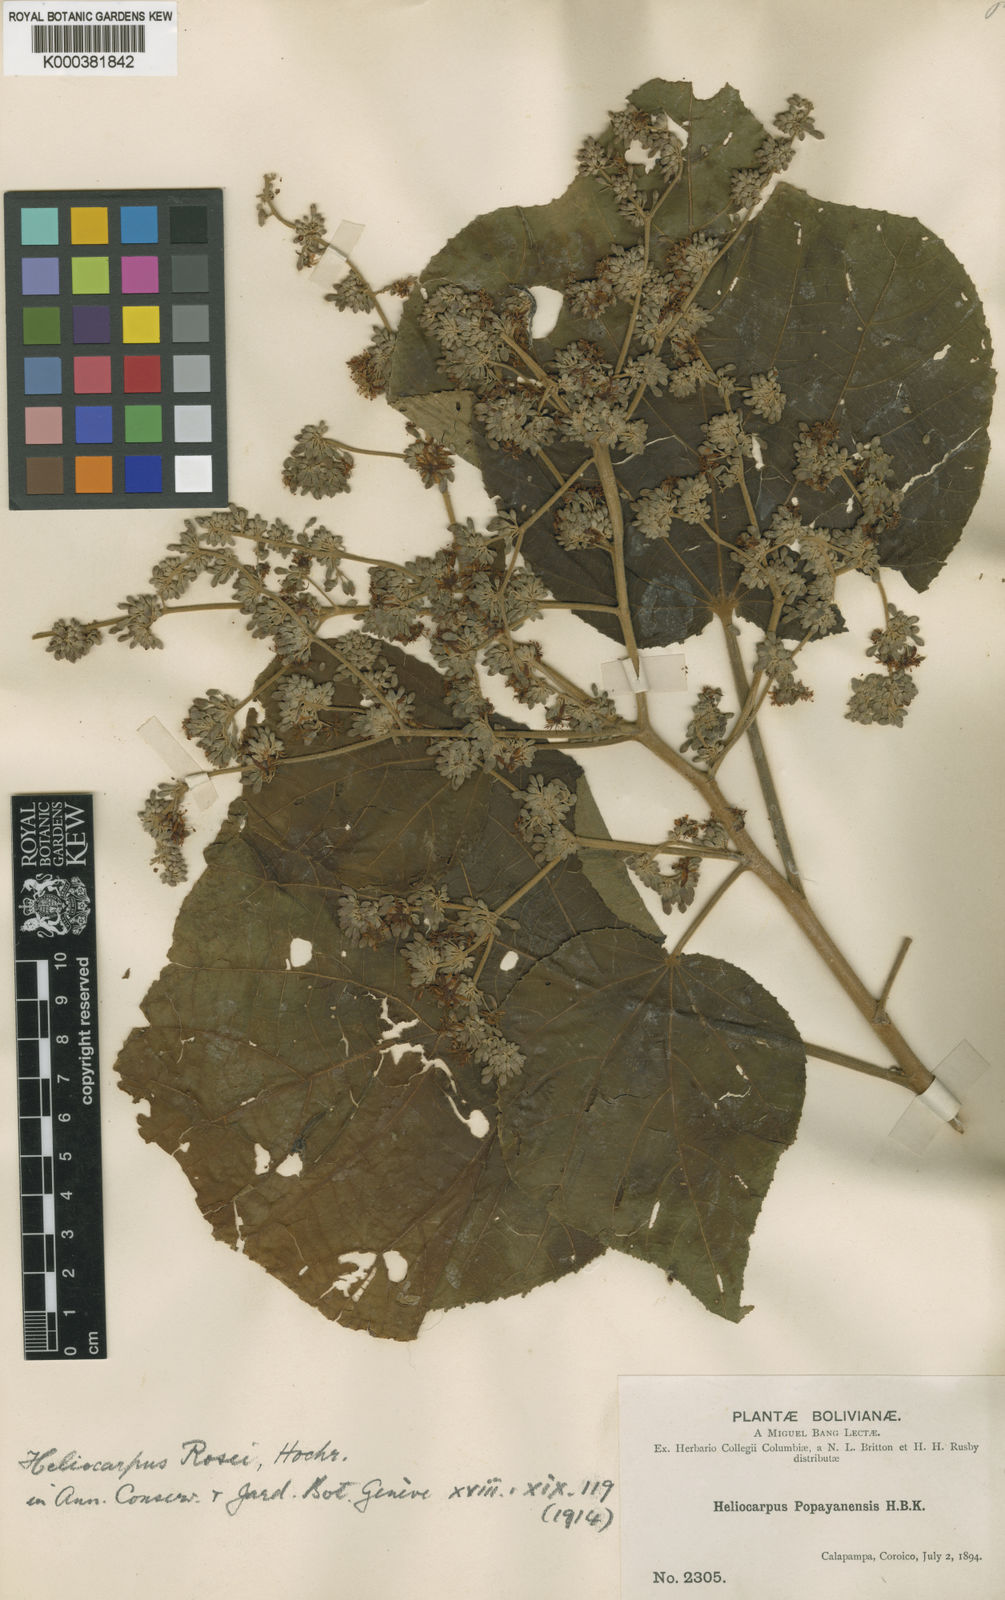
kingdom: Plantae
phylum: Tracheophyta
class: Magnoliopsida
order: Malvales
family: Malvaceae
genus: Heliocarpus
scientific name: Heliocarpus americanus
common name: White moho
